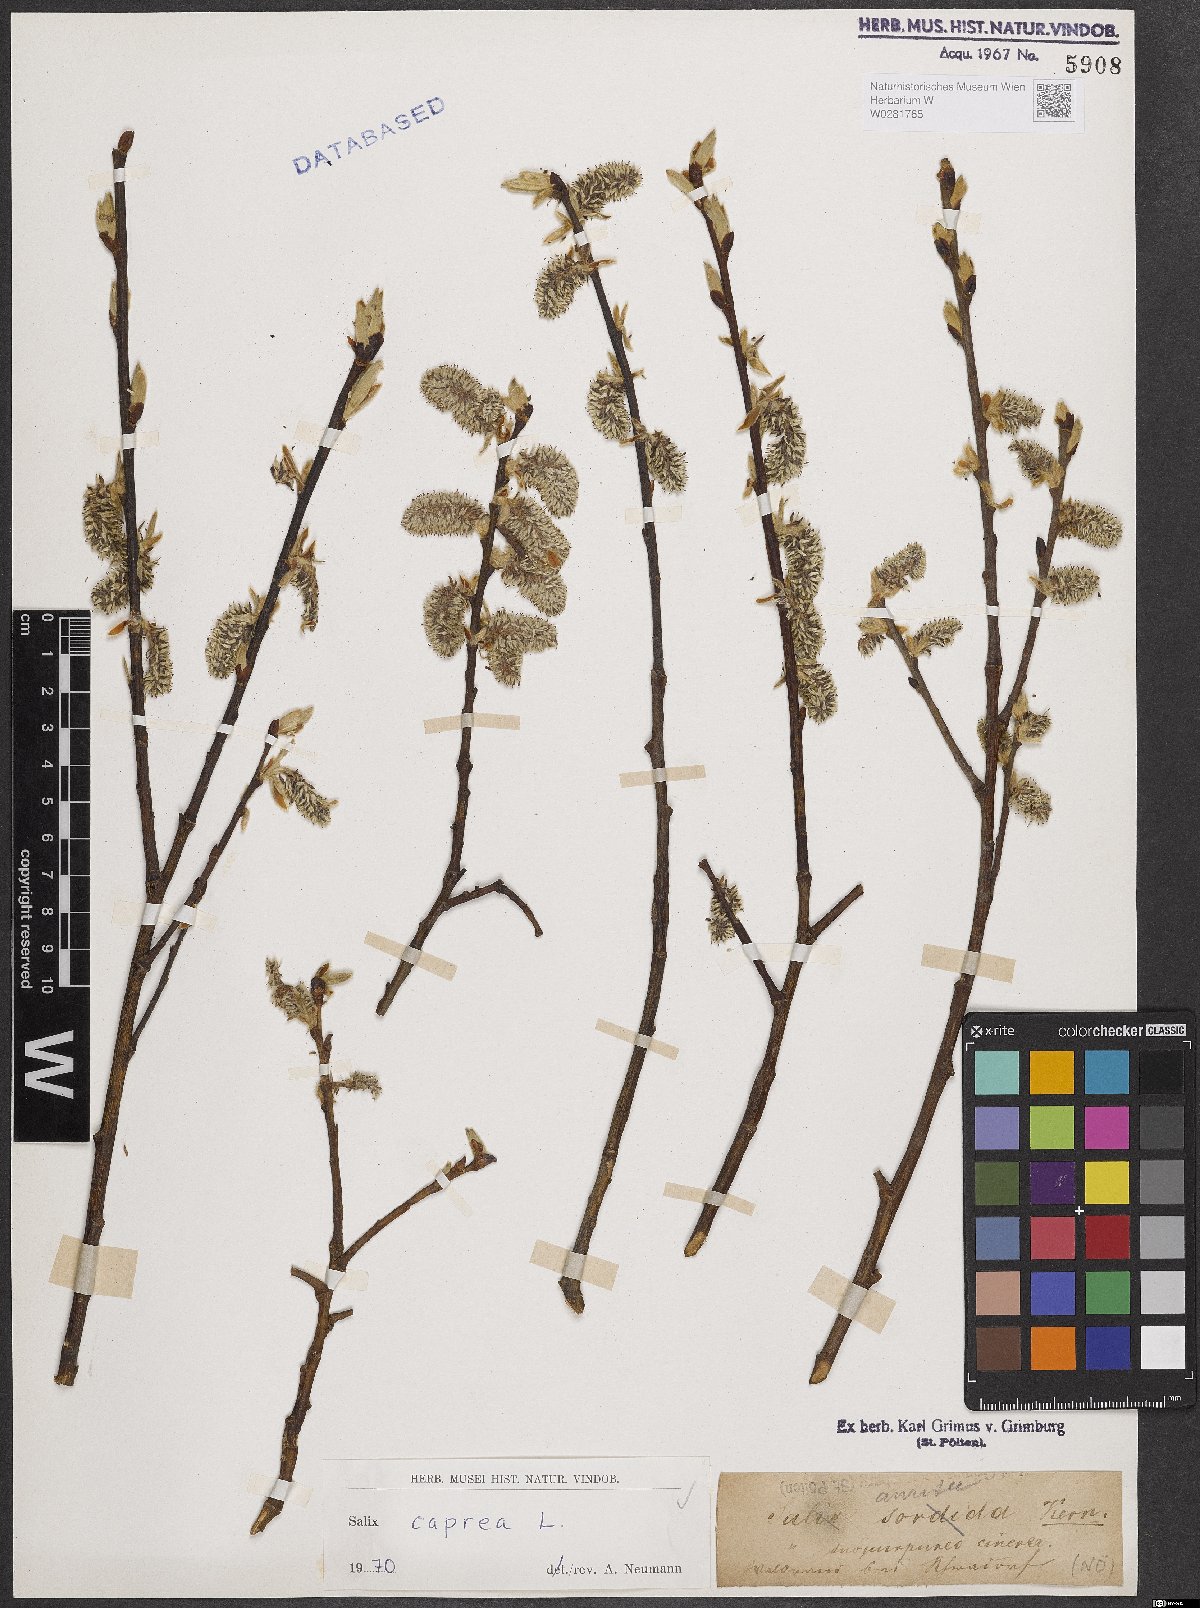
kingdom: Plantae
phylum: Tracheophyta
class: Magnoliopsida
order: Malpighiales
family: Salicaceae
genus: Salix
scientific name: Salix caprea
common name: Goat willow
